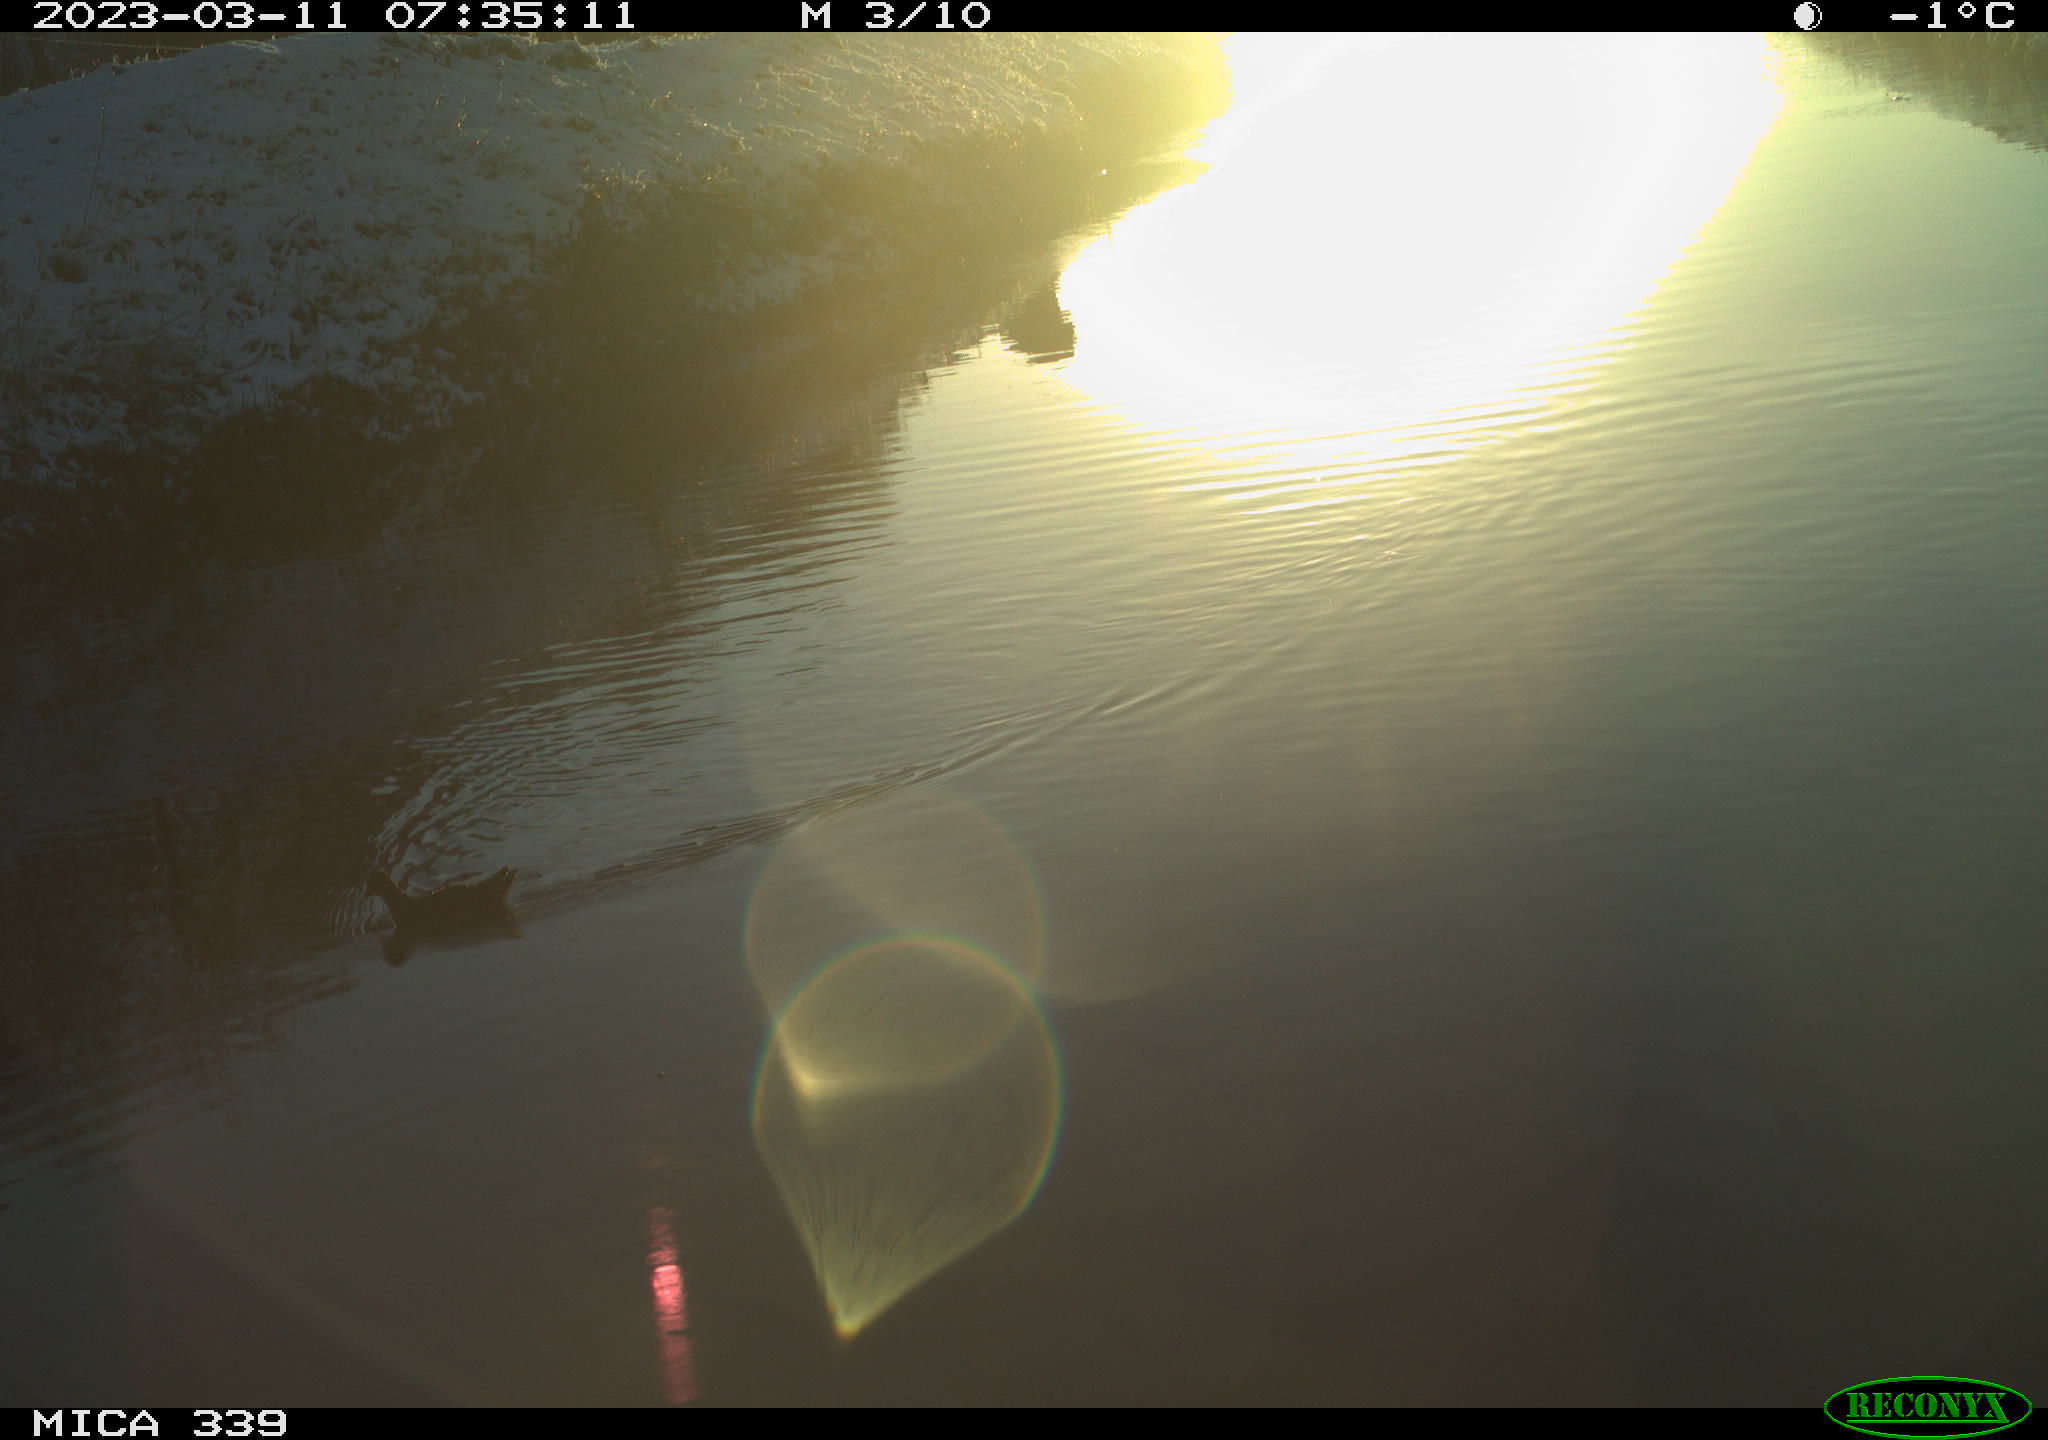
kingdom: Animalia
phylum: Chordata
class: Aves
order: Gruiformes
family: Rallidae
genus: Gallinula
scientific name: Gallinula chloropus
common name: Common moorhen
